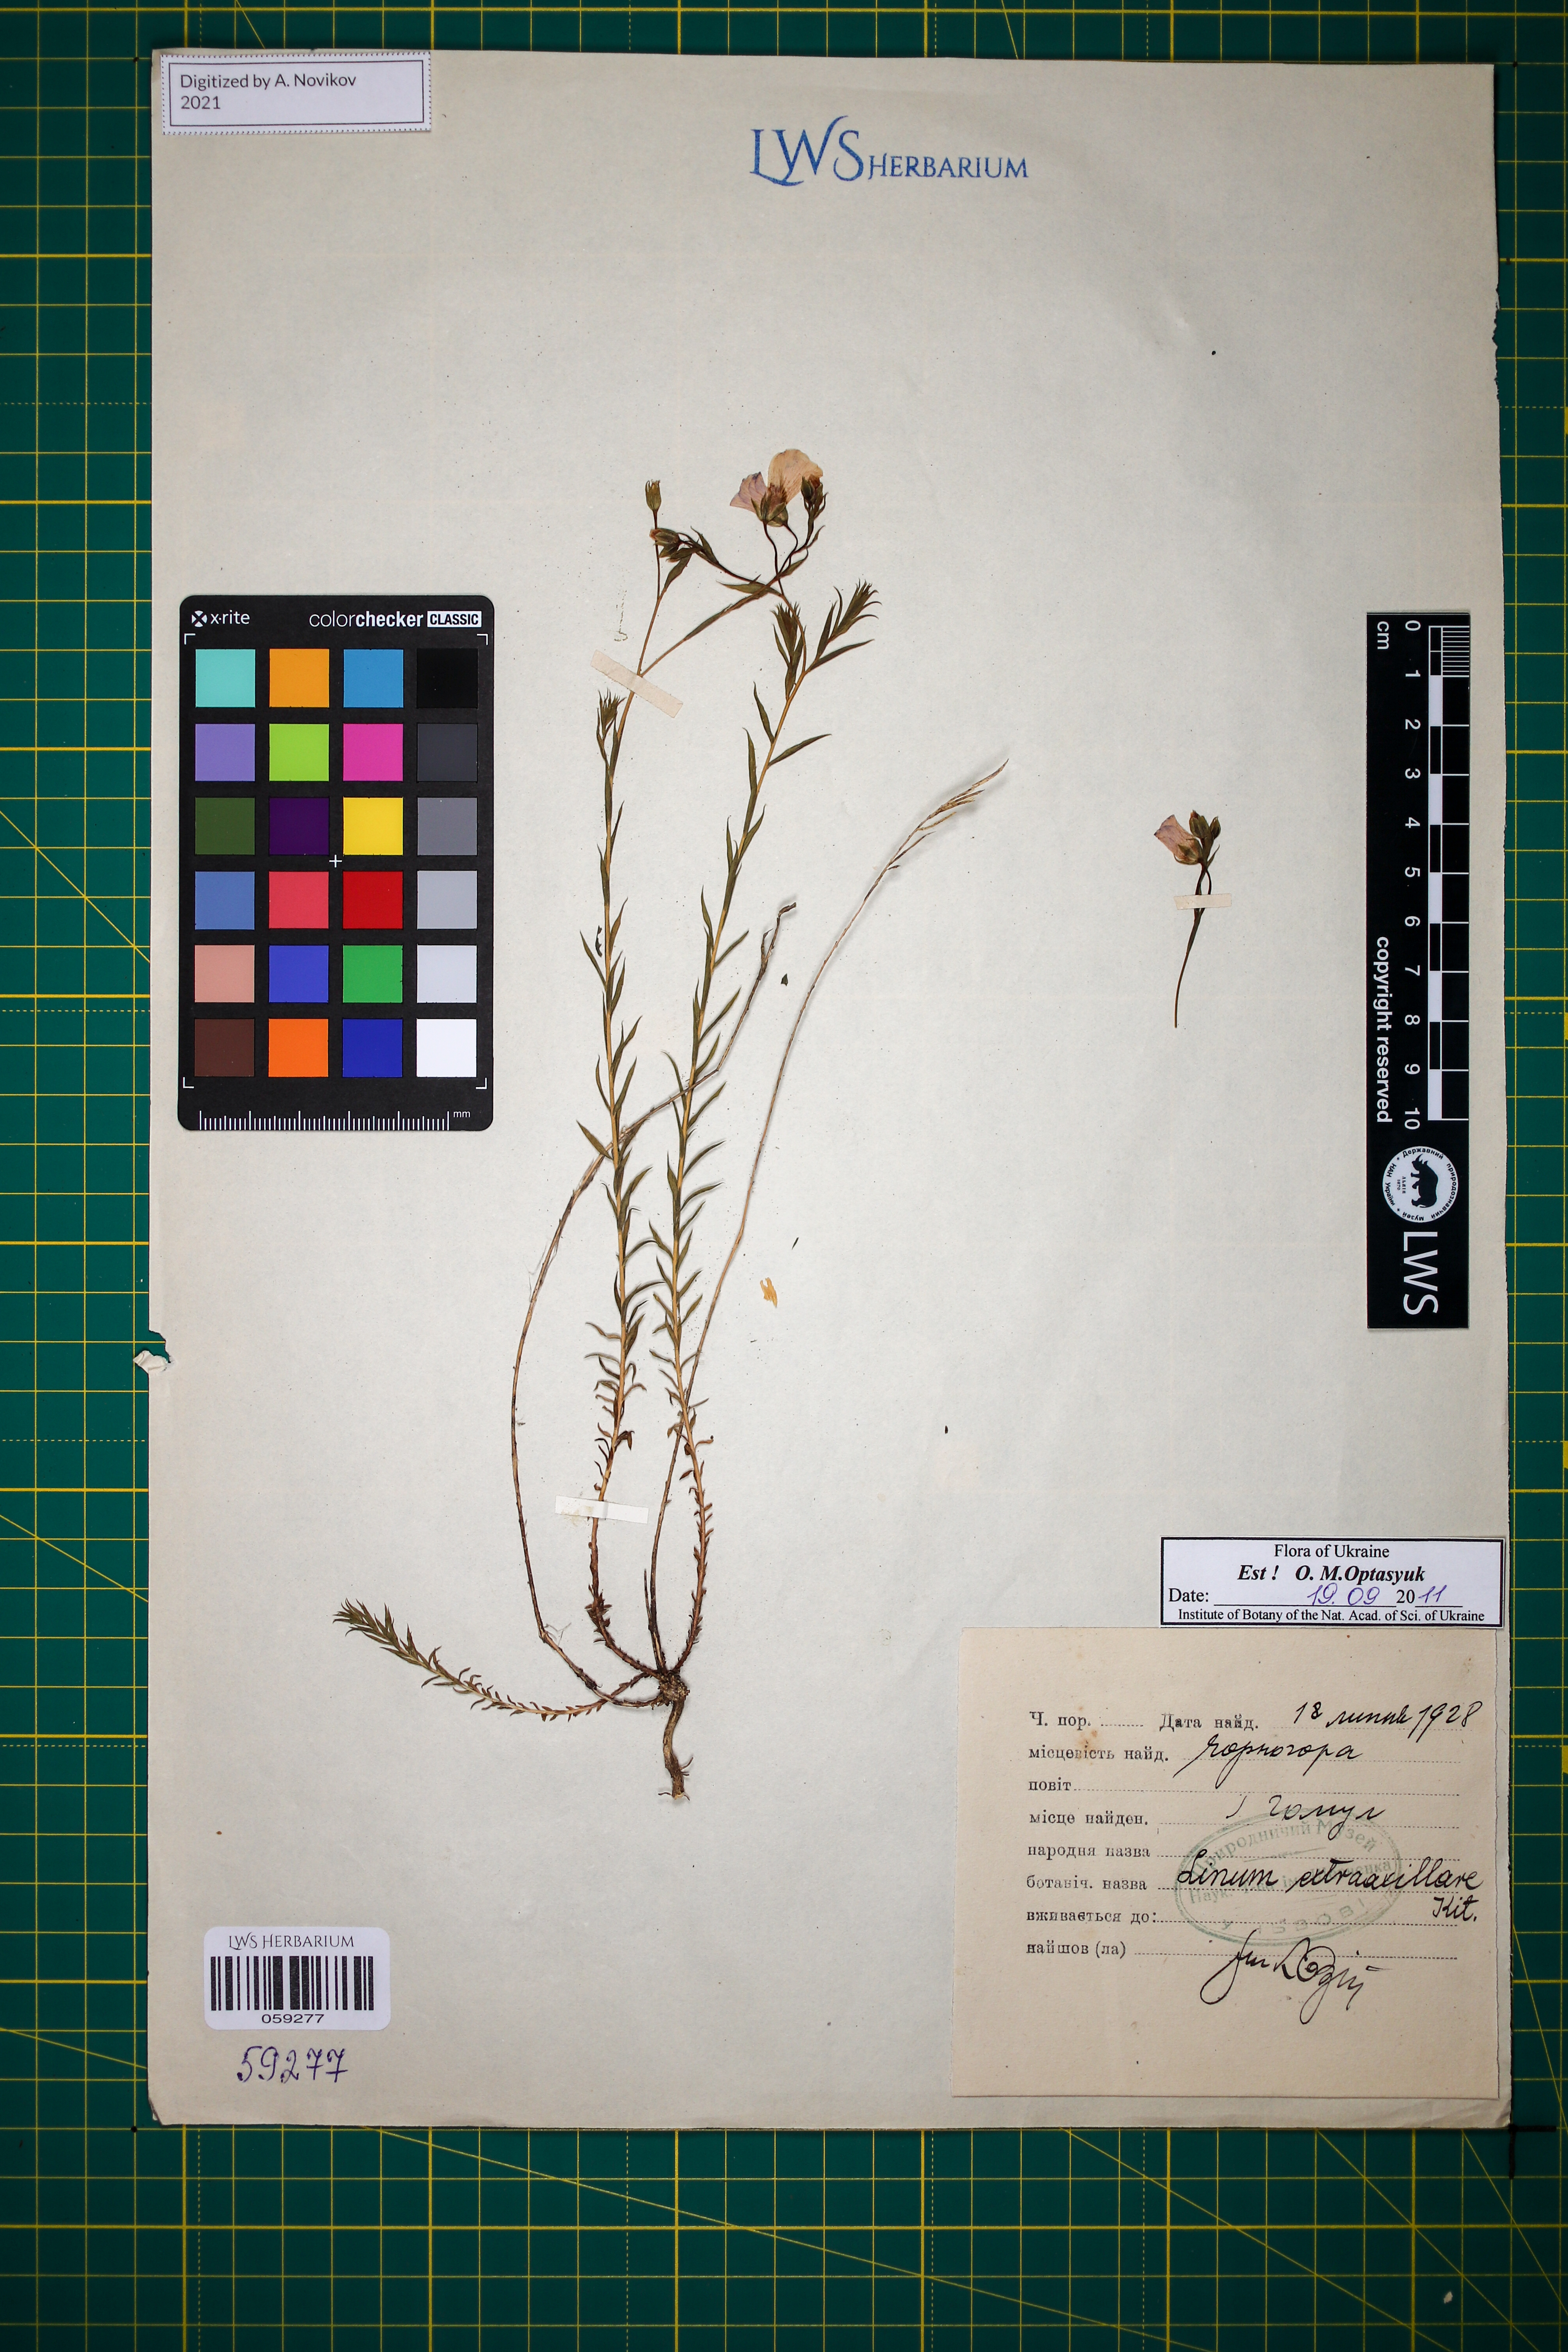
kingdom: Plantae
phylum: Tracheophyta
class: Magnoliopsida
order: Malpighiales
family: Linaceae
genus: Linum
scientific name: Linum perenne
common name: Blue flax
